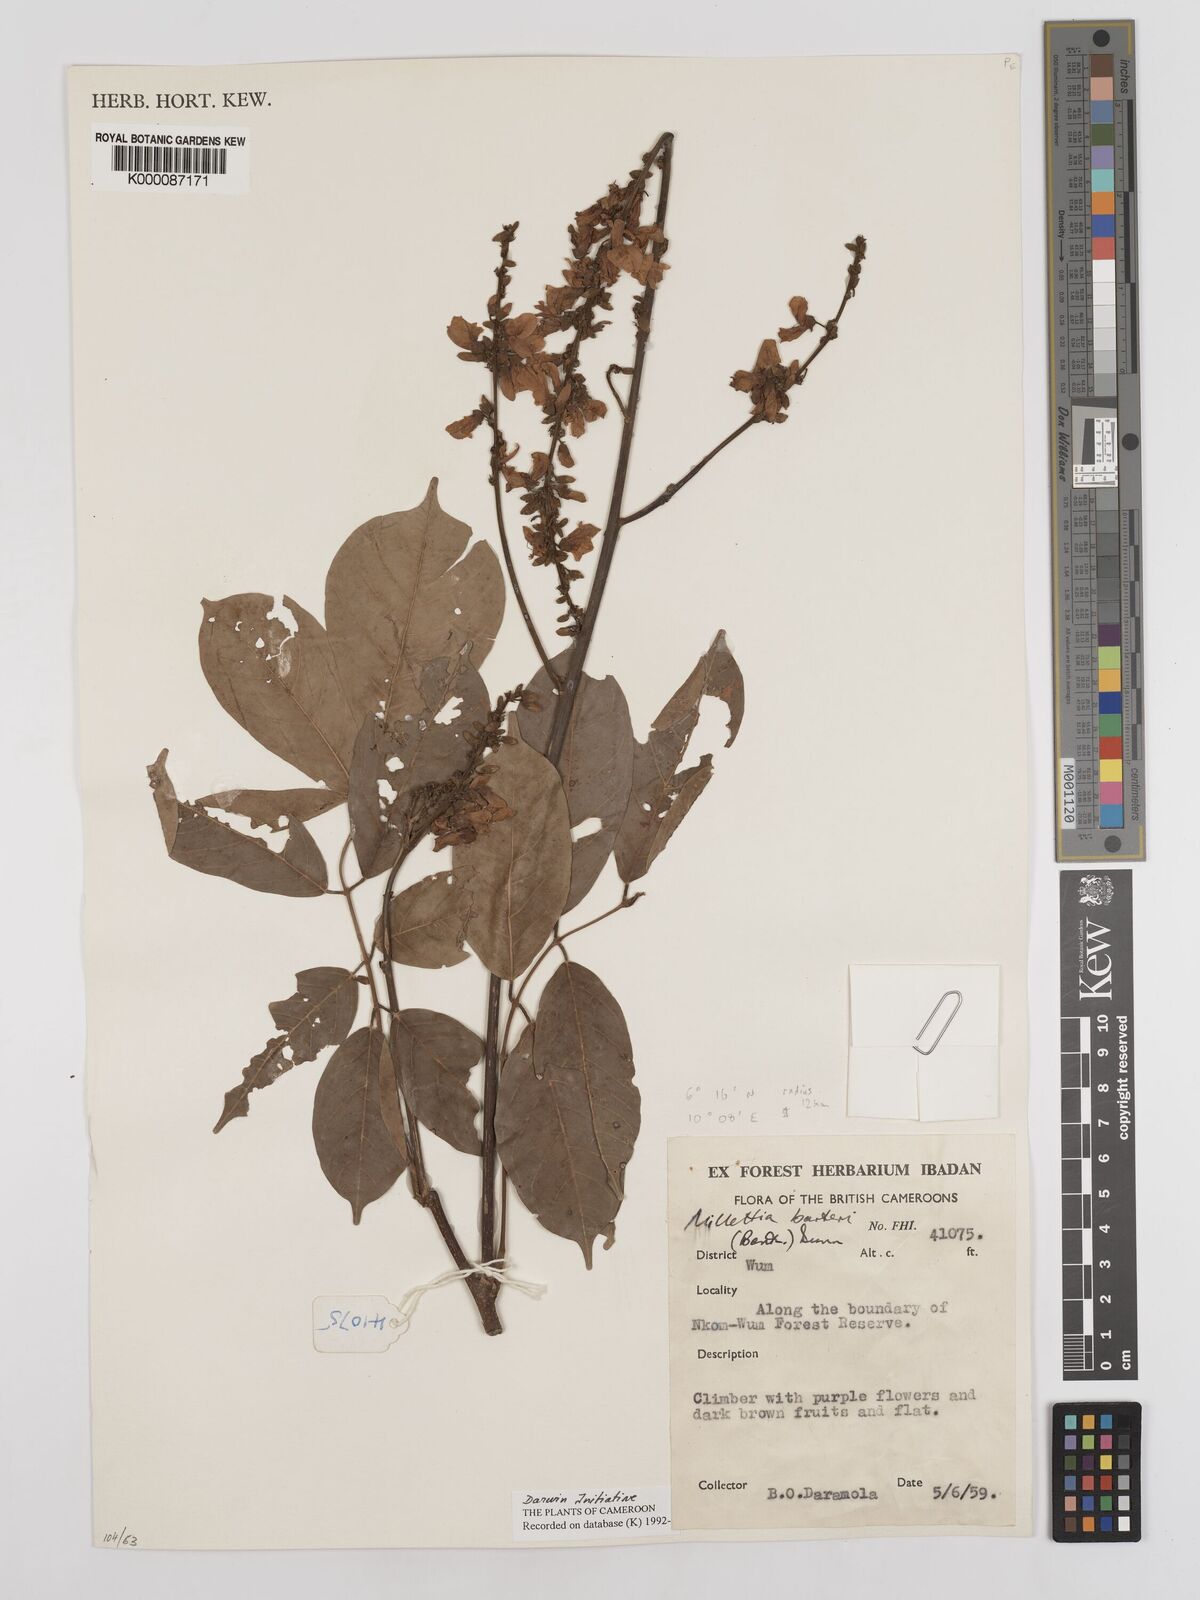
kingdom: Plantae
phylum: Tracheophyta
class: Magnoliopsida
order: Fabales
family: Fabaceae
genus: Millettia
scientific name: Millettia barteri
